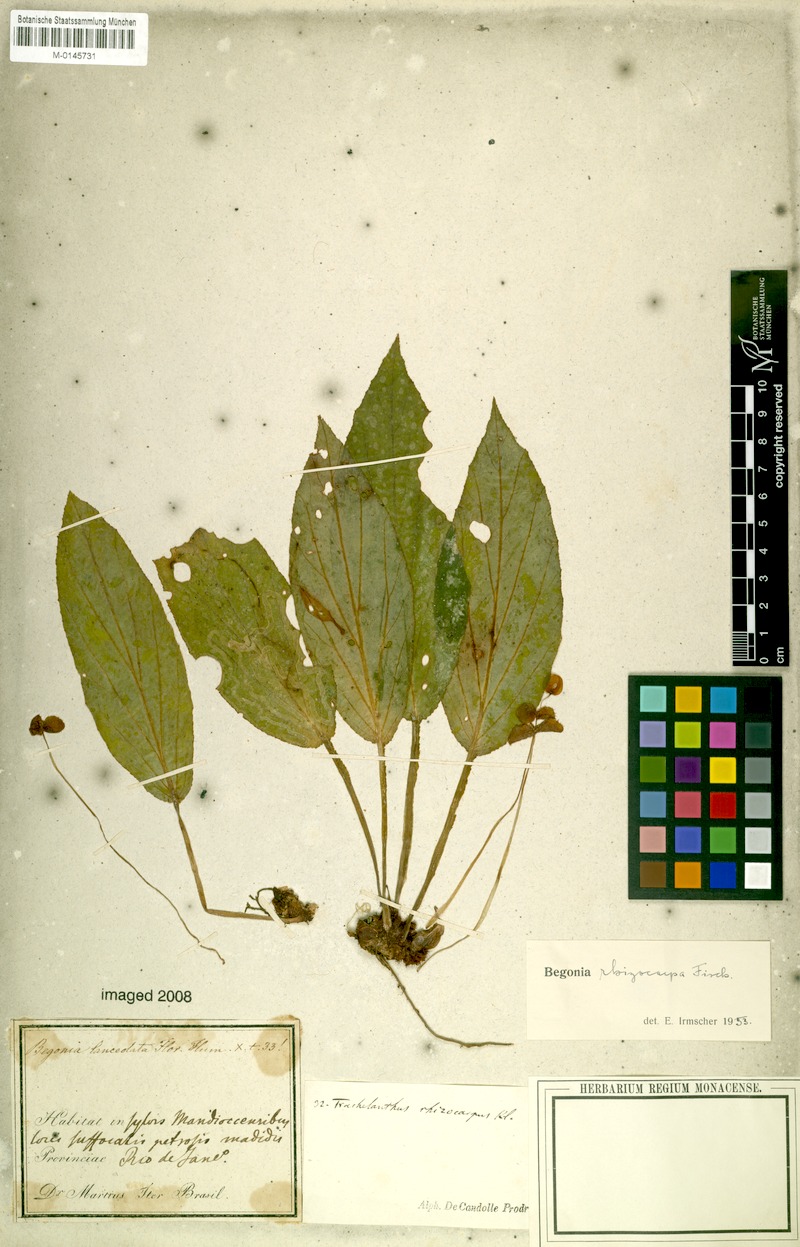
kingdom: Plantae
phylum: Tracheophyta
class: Magnoliopsida
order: Cucurbitales
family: Begoniaceae
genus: Begonia
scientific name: Begonia depauperata
